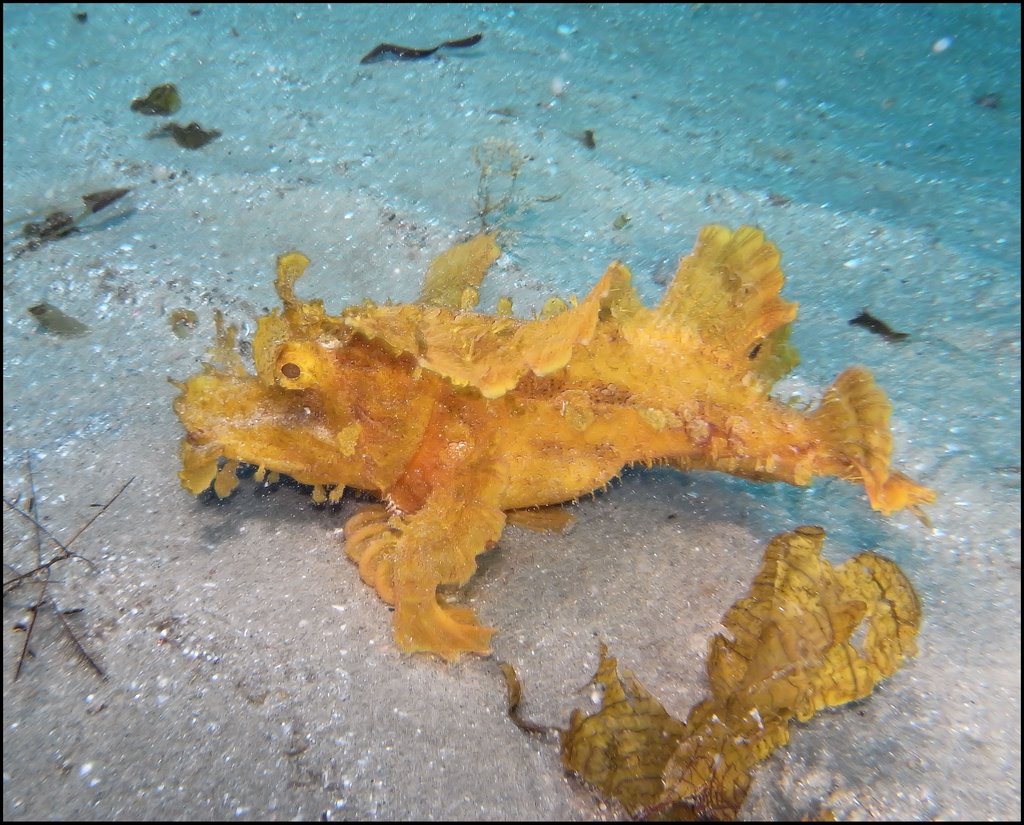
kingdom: Animalia
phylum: Chordata
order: Scorpaeniformes
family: Scorpaenidae
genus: Rhinopias
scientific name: Rhinopias eschmeyeri
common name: Eschmeyer's scorpionfish
